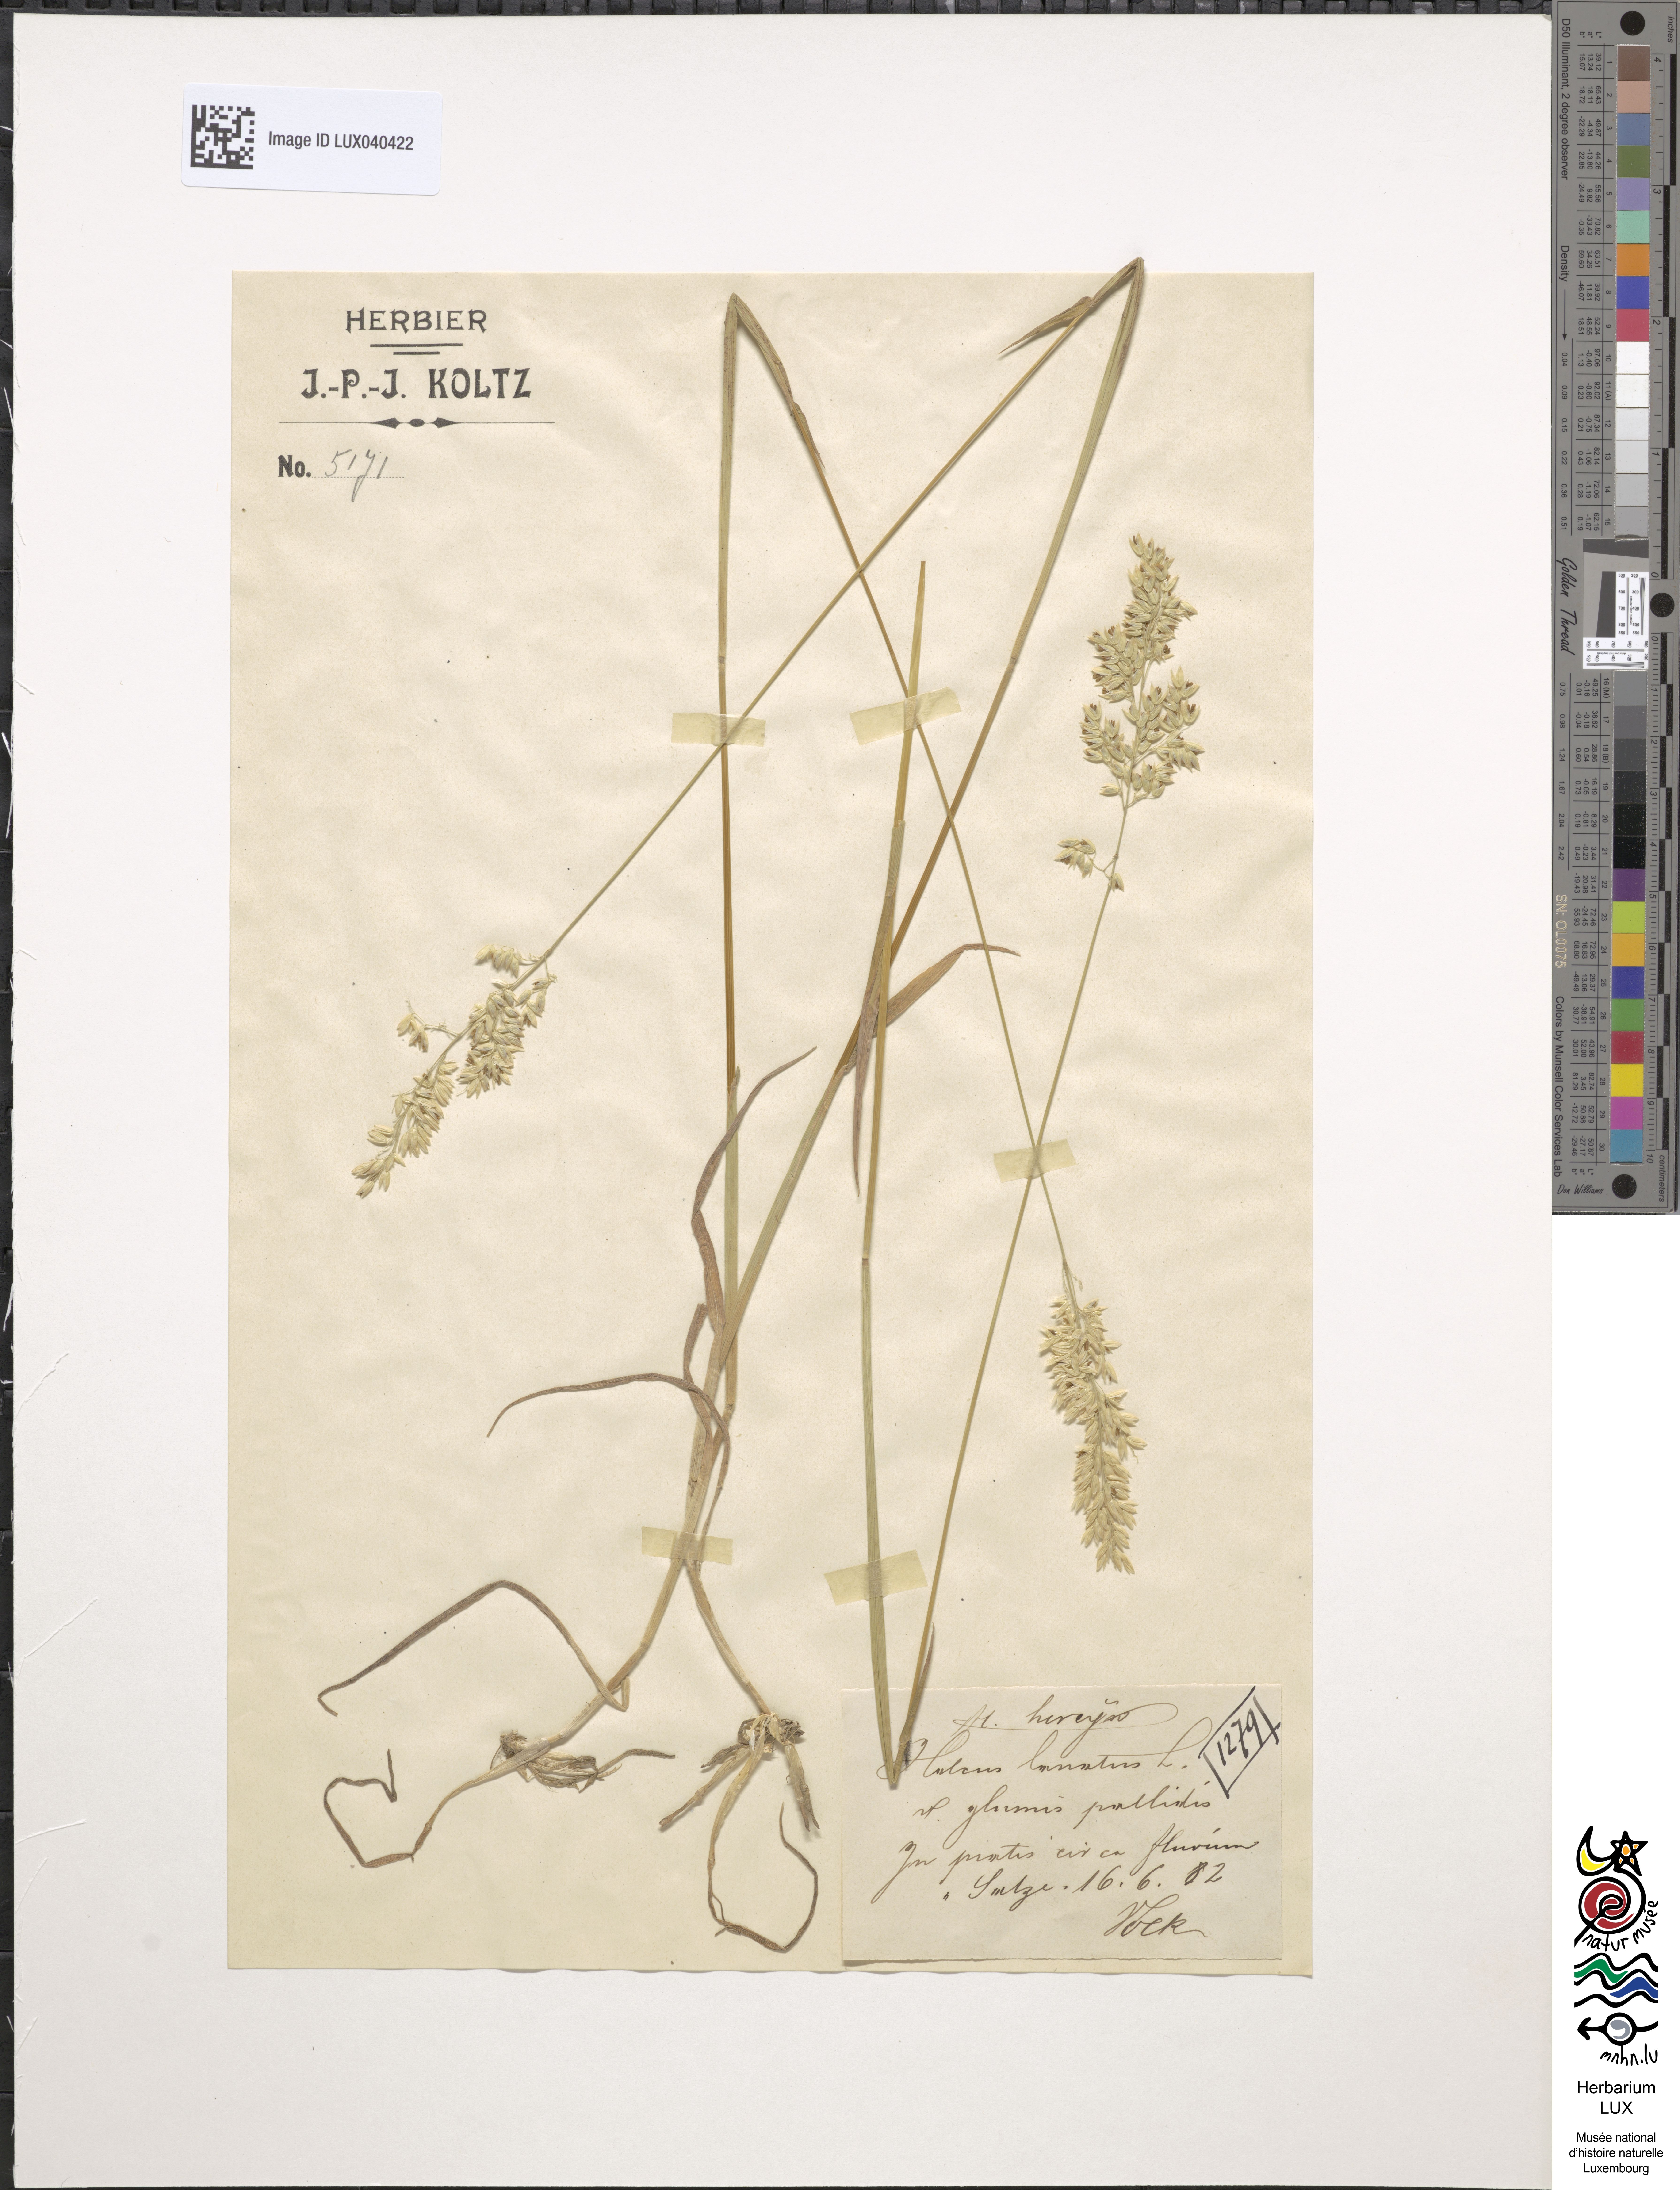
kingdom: Plantae
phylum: Tracheophyta
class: Liliopsida
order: Poales
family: Poaceae
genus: Holcus
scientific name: Holcus lanatus
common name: Yorkshire-fog
